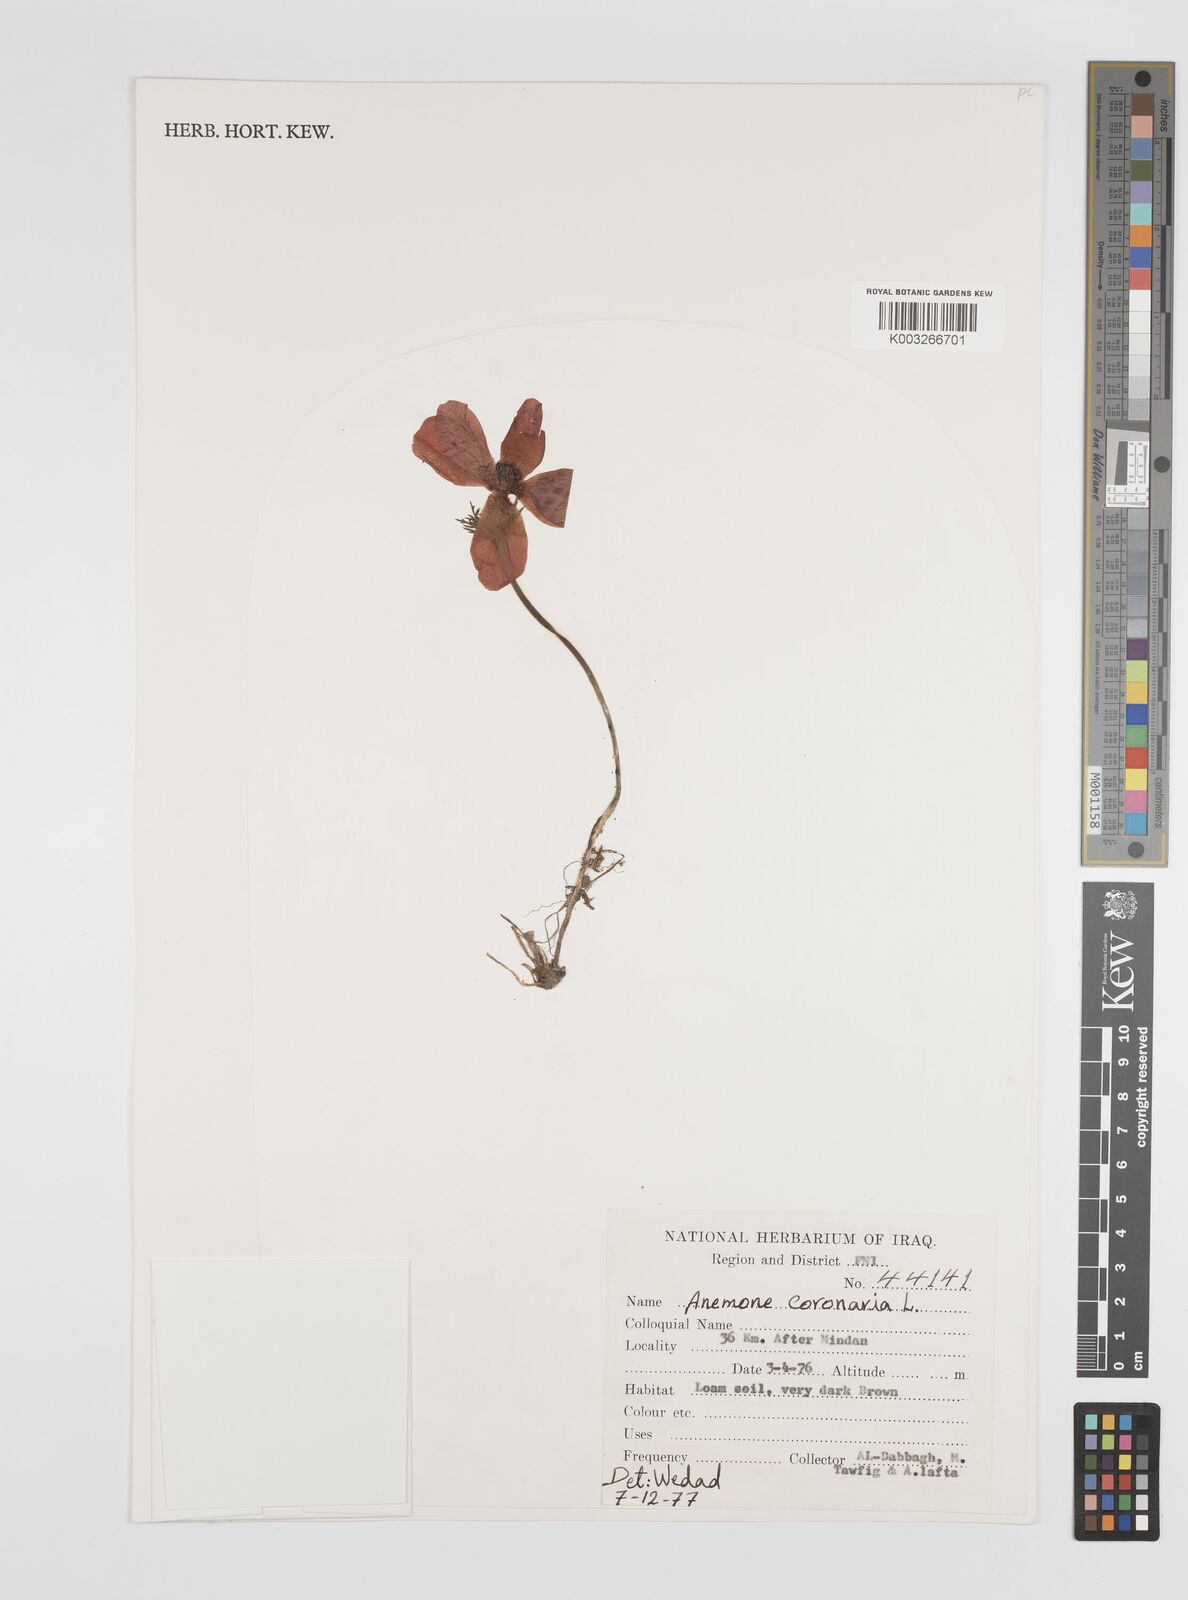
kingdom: Plantae
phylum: Tracheophyta
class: Magnoliopsida
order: Ranunculales
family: Ranunculaceae
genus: Anemone
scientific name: Anemone coronaria
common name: Poppy anemone
